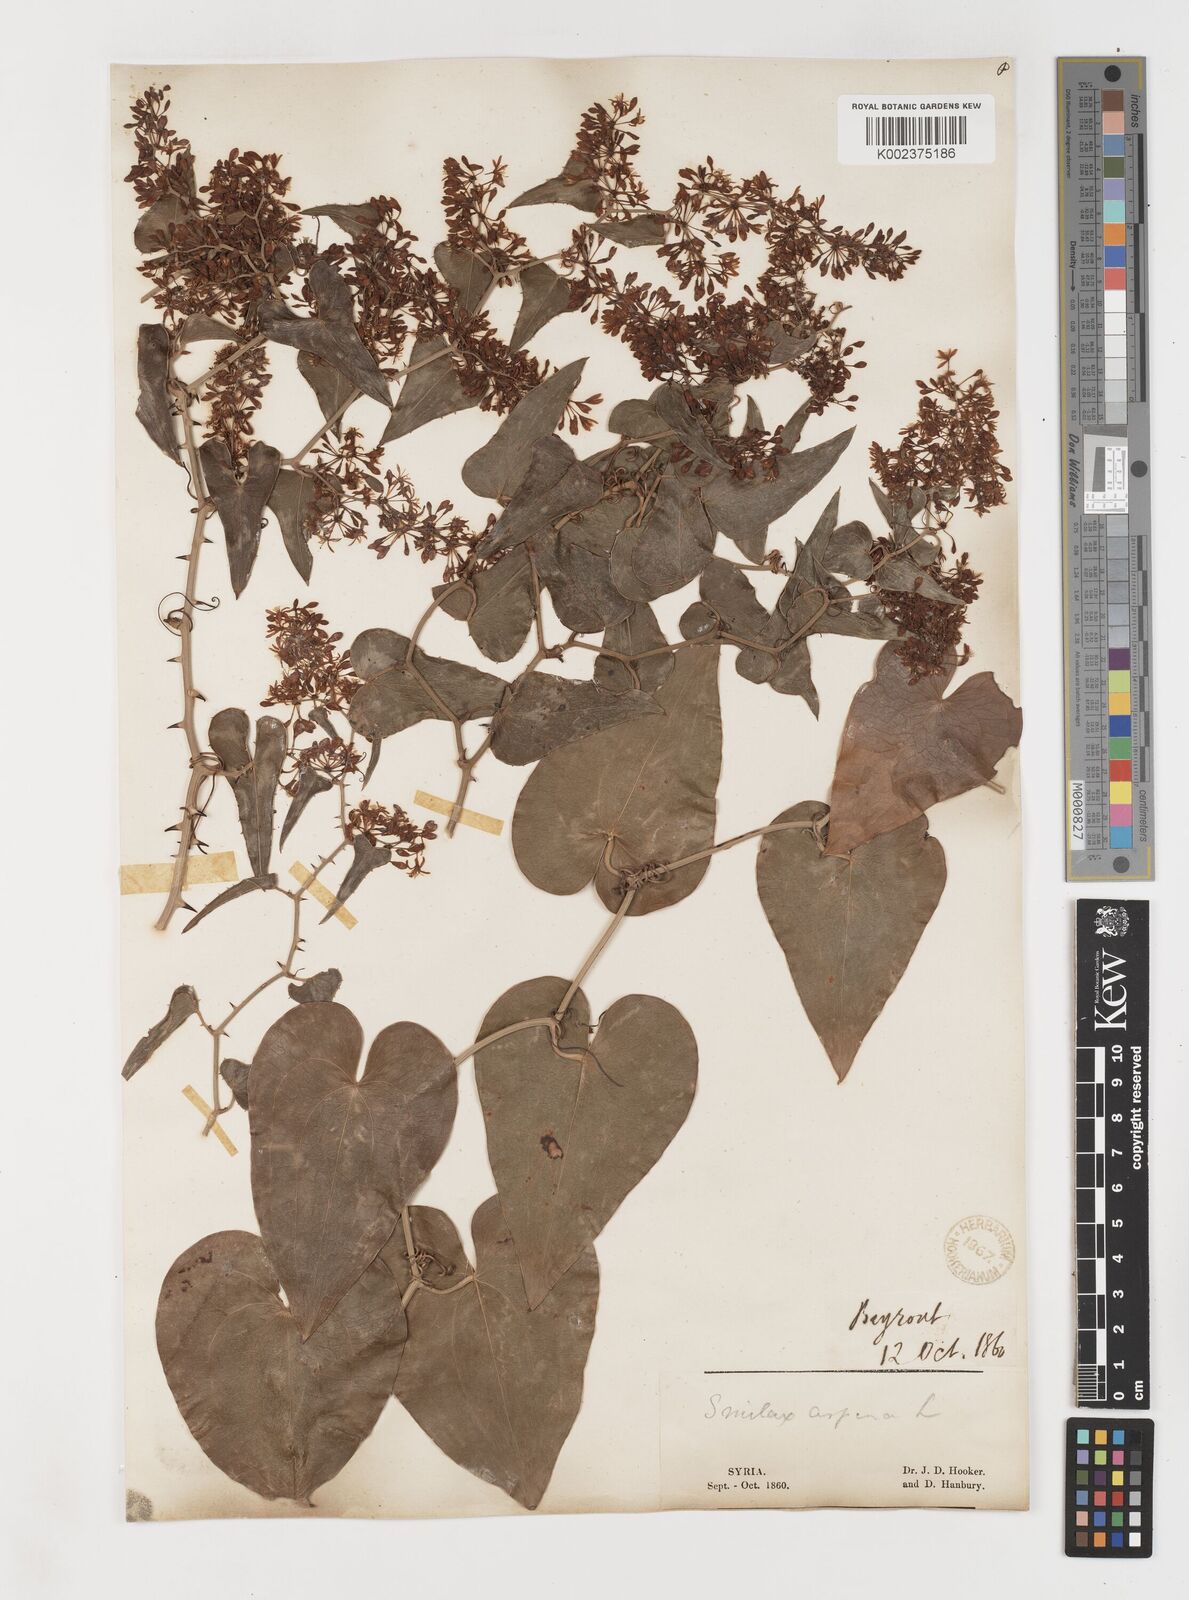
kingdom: Plantae
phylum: Tracheophyta
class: Liliopsida
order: Liliales
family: Smilacaceae
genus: Smilax
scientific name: Smilax aspera
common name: Common smilax
